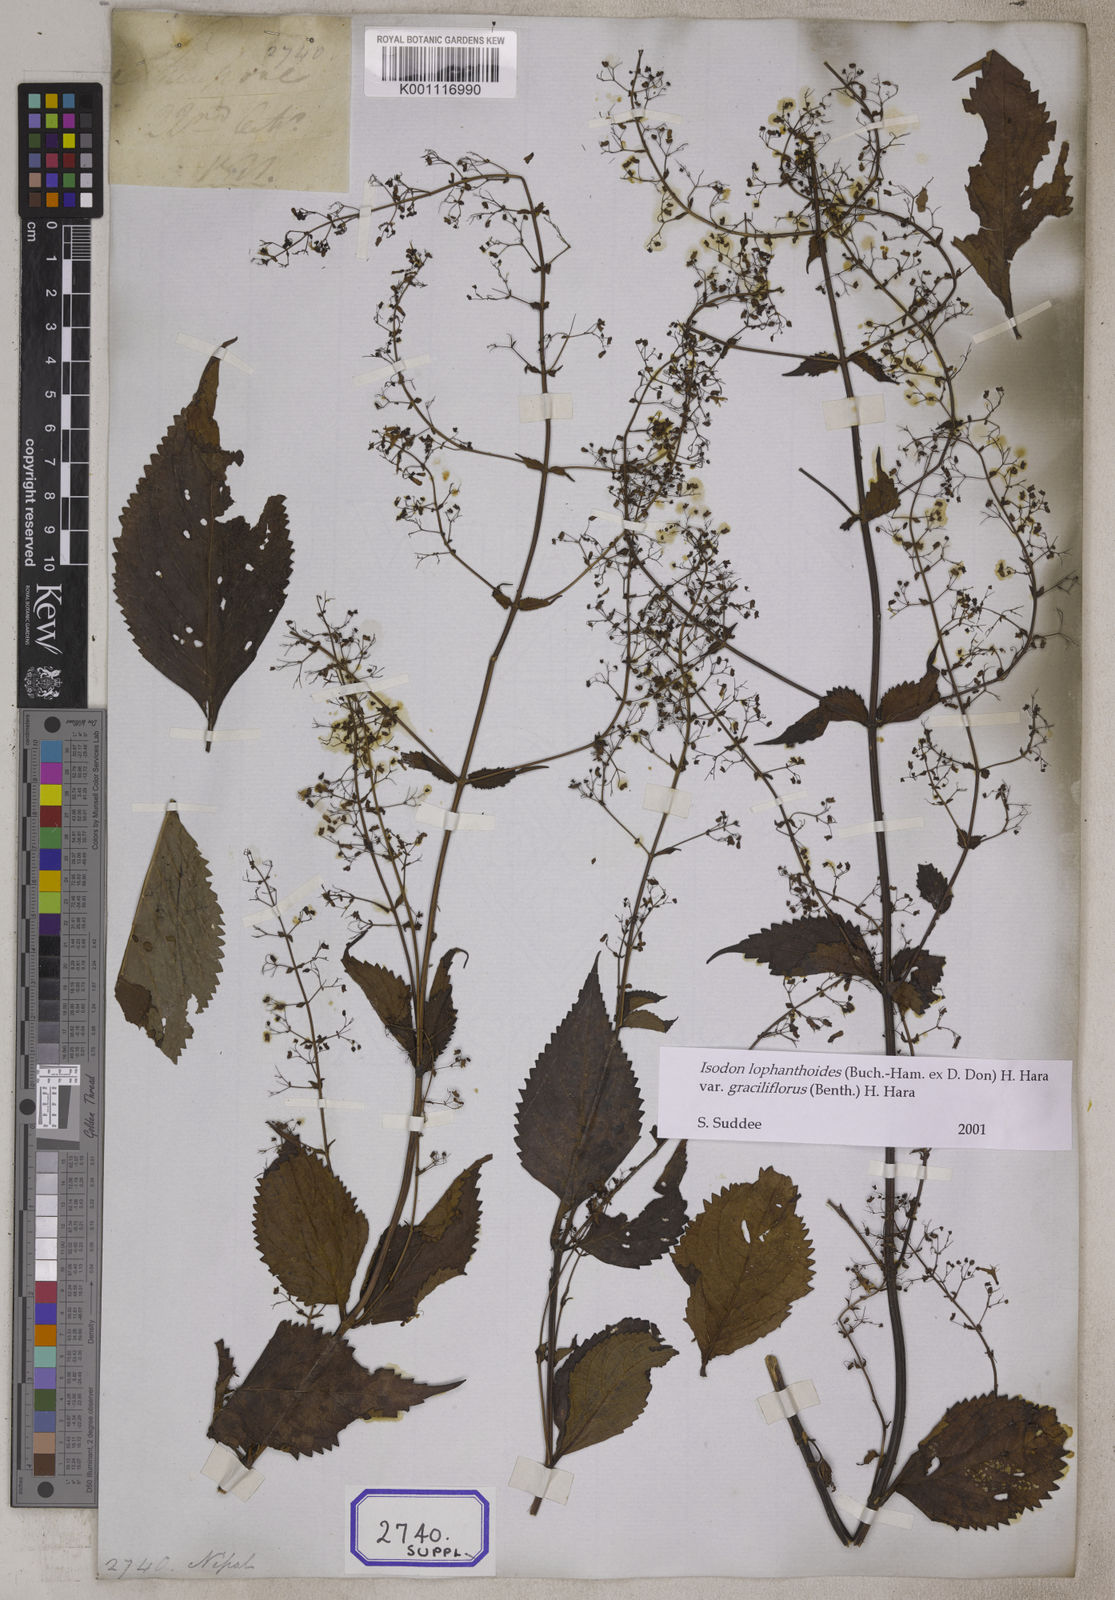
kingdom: Plantae
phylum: Tracheophyta
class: Magnoliopsida
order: Lamiales
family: Lamiaceae
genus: Isodon
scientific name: Isodon lophanthoides
